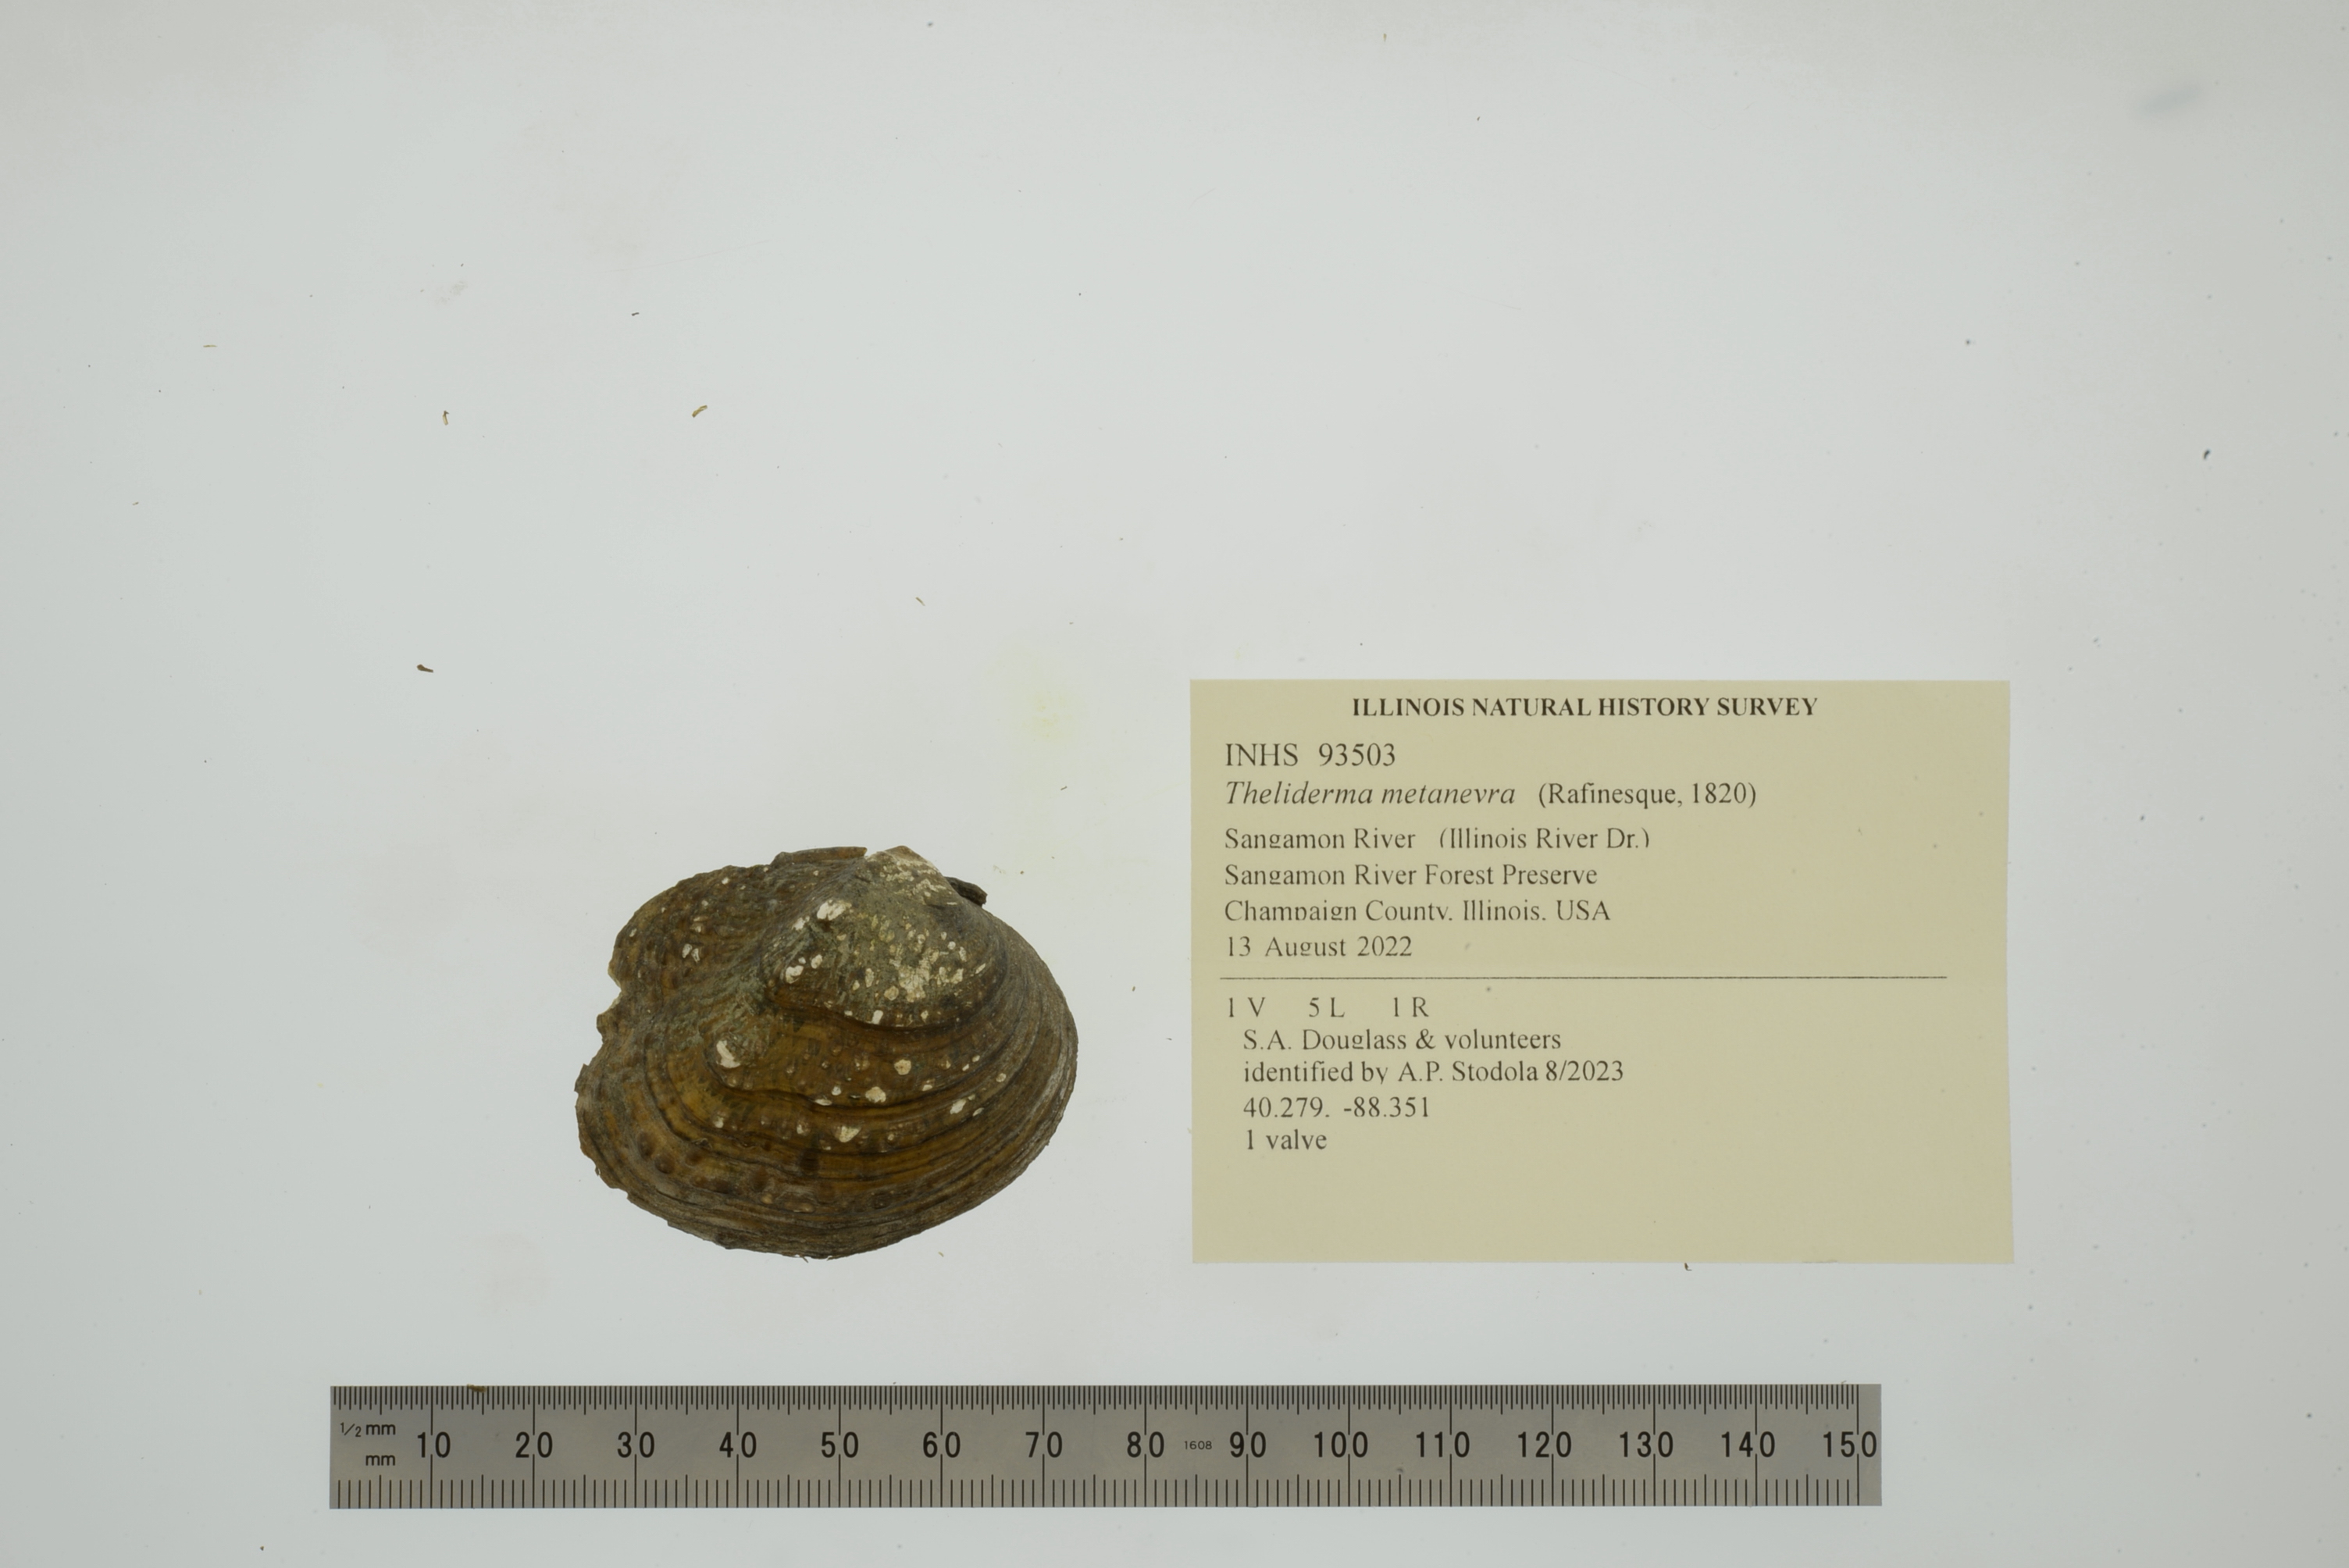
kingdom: Animalia
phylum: Mollusca
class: Bivalvia
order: Unionida
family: Unionidae
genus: Theliderma
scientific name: Theliderma metanevra
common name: Monkeyface
